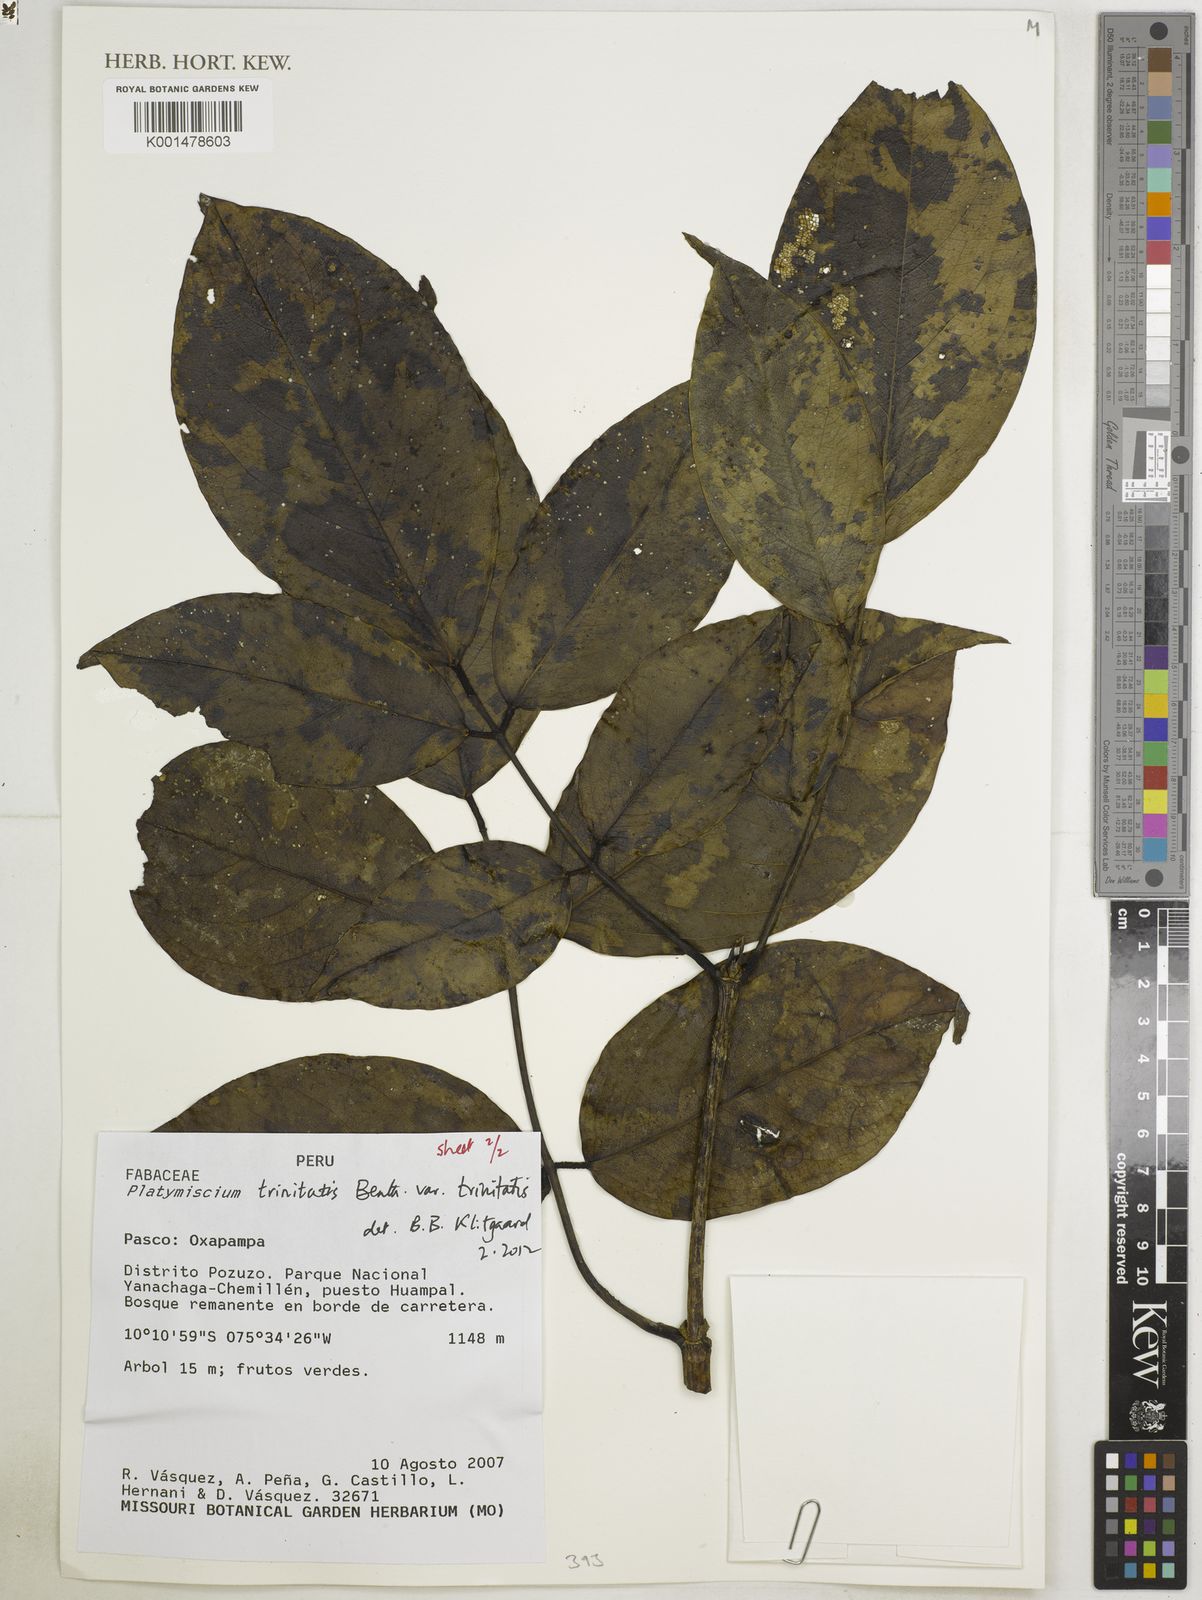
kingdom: Plantae
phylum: Tracheophyta
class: Magnoliopsida
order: Fabales
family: Fabaceae
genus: Platymiscium
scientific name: Platymiscium trinitatis
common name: Trinidad macawood
